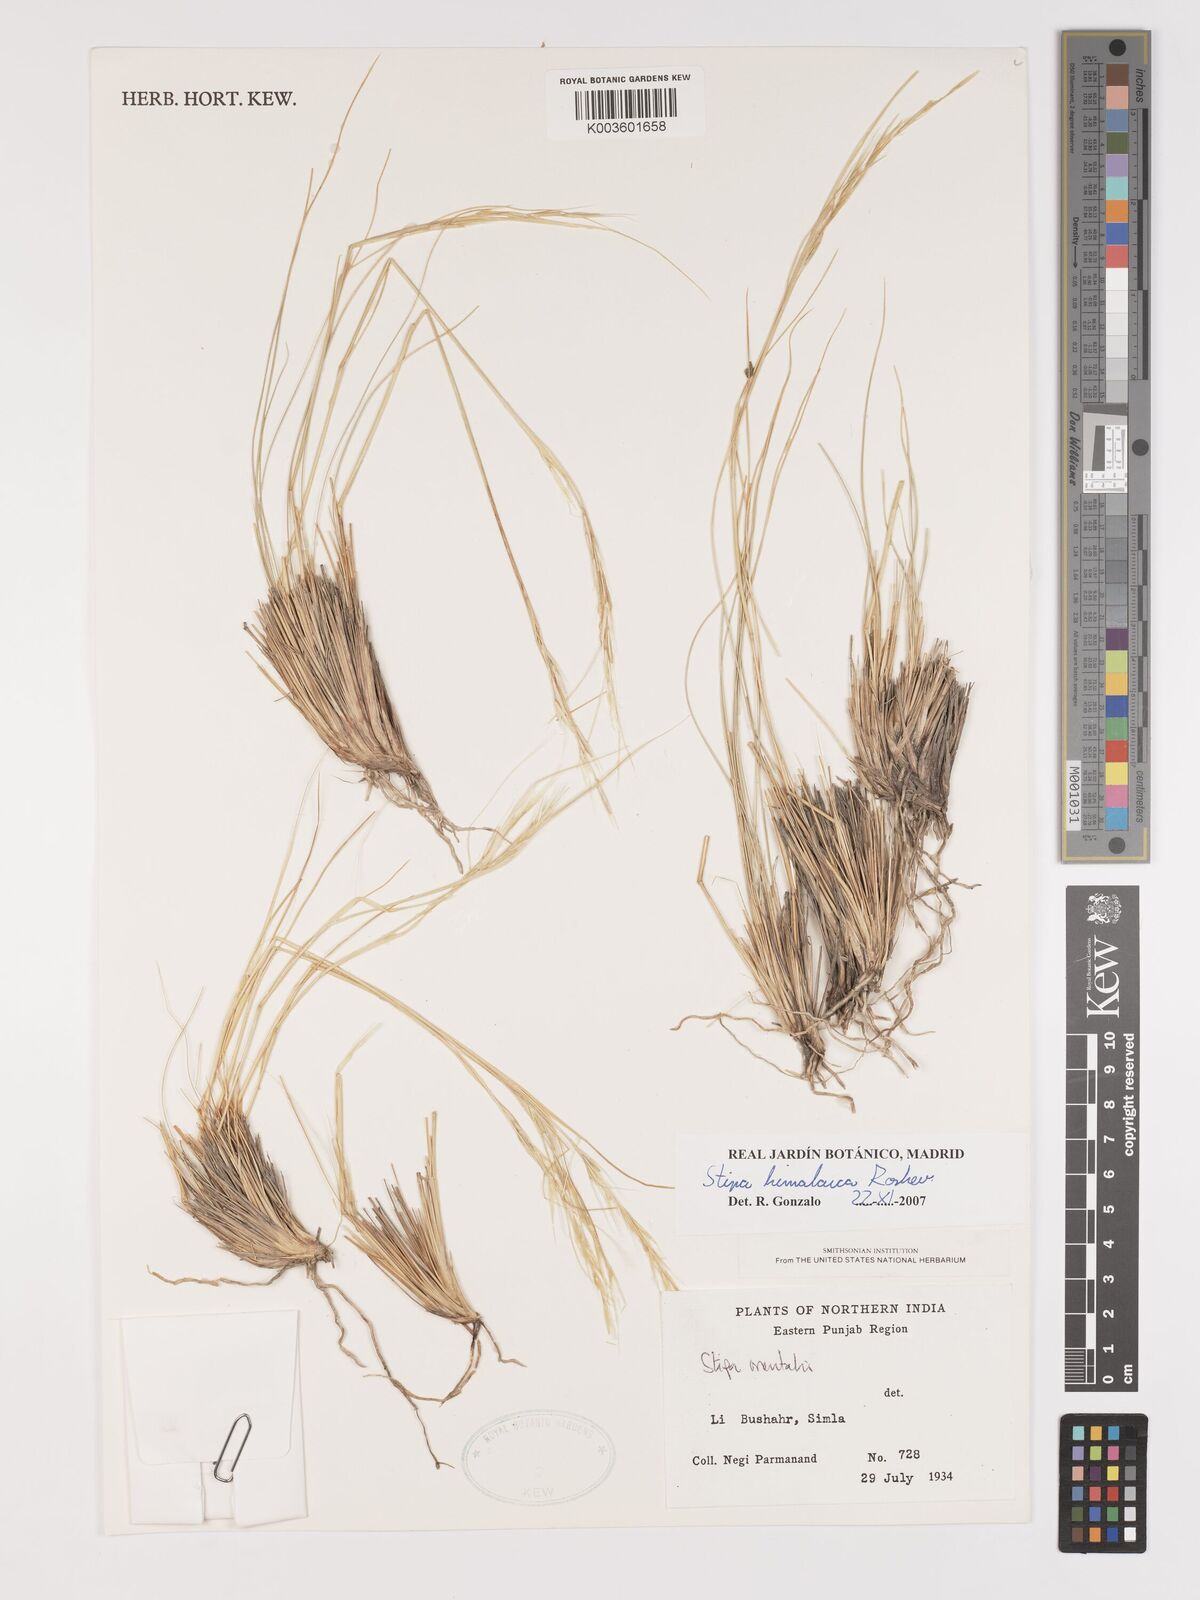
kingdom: Plantae
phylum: Tracheophyta
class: Liliopsida
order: Poales
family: Poaceae
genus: Stipa
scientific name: Stipa himalaica
